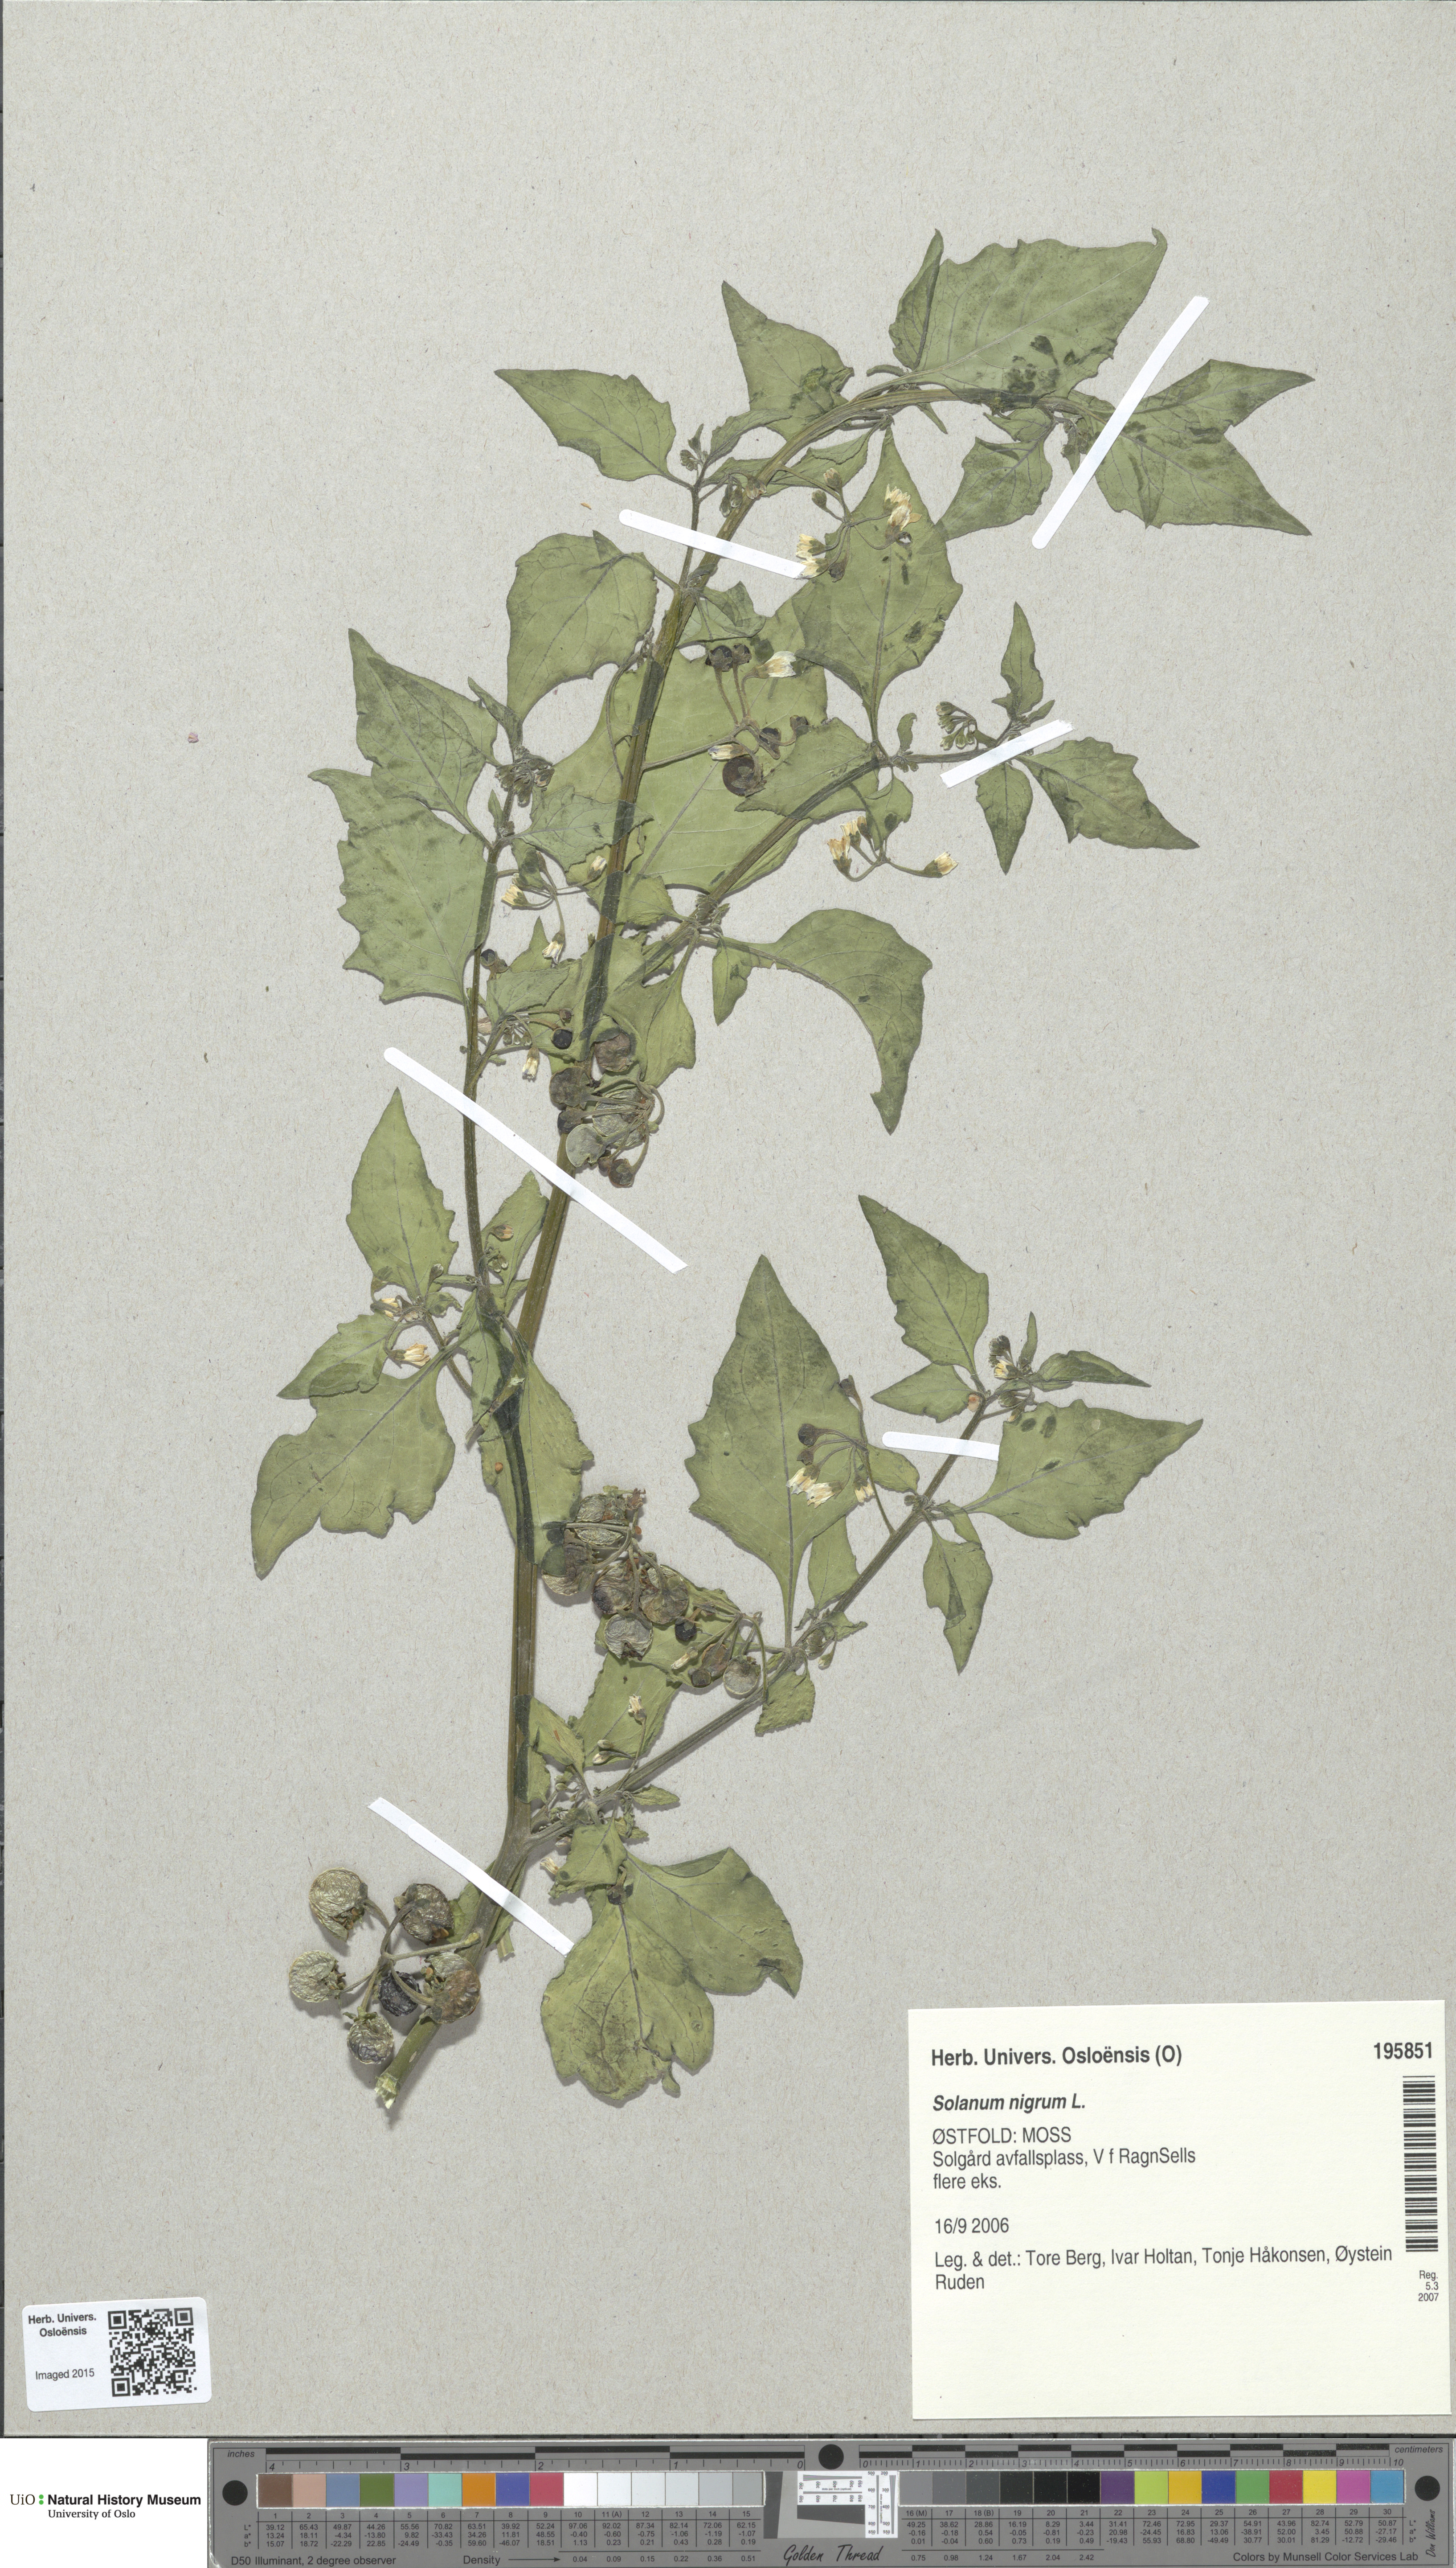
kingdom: Plantae
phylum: Tracheophyta
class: Magnoliopsida
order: Solanales
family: Solanaceae
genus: Solanum
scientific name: Solanum nigrum
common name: Black nightshade
